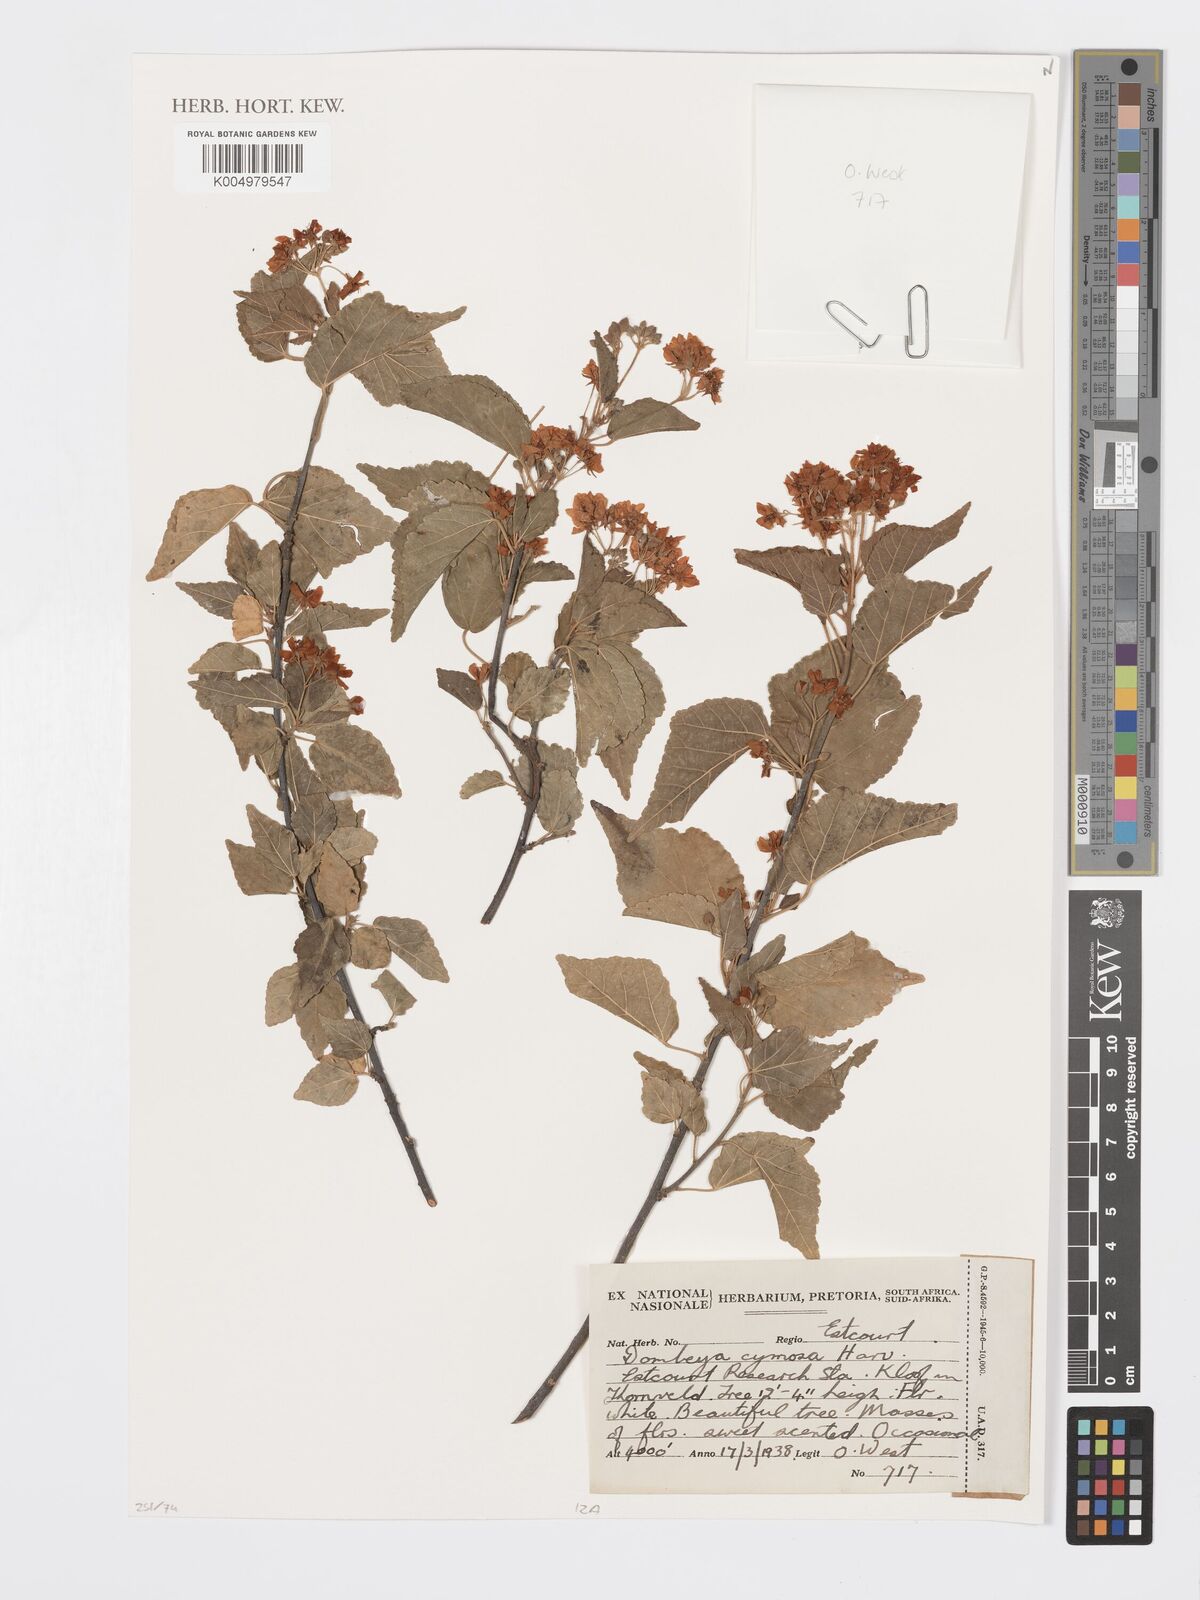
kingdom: Plantae
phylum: Tracheophyta
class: Magnoliopsida
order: Malvales
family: Malvaceae
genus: Dombeya
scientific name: Dombeya cymosa
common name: Hairless dombeya
